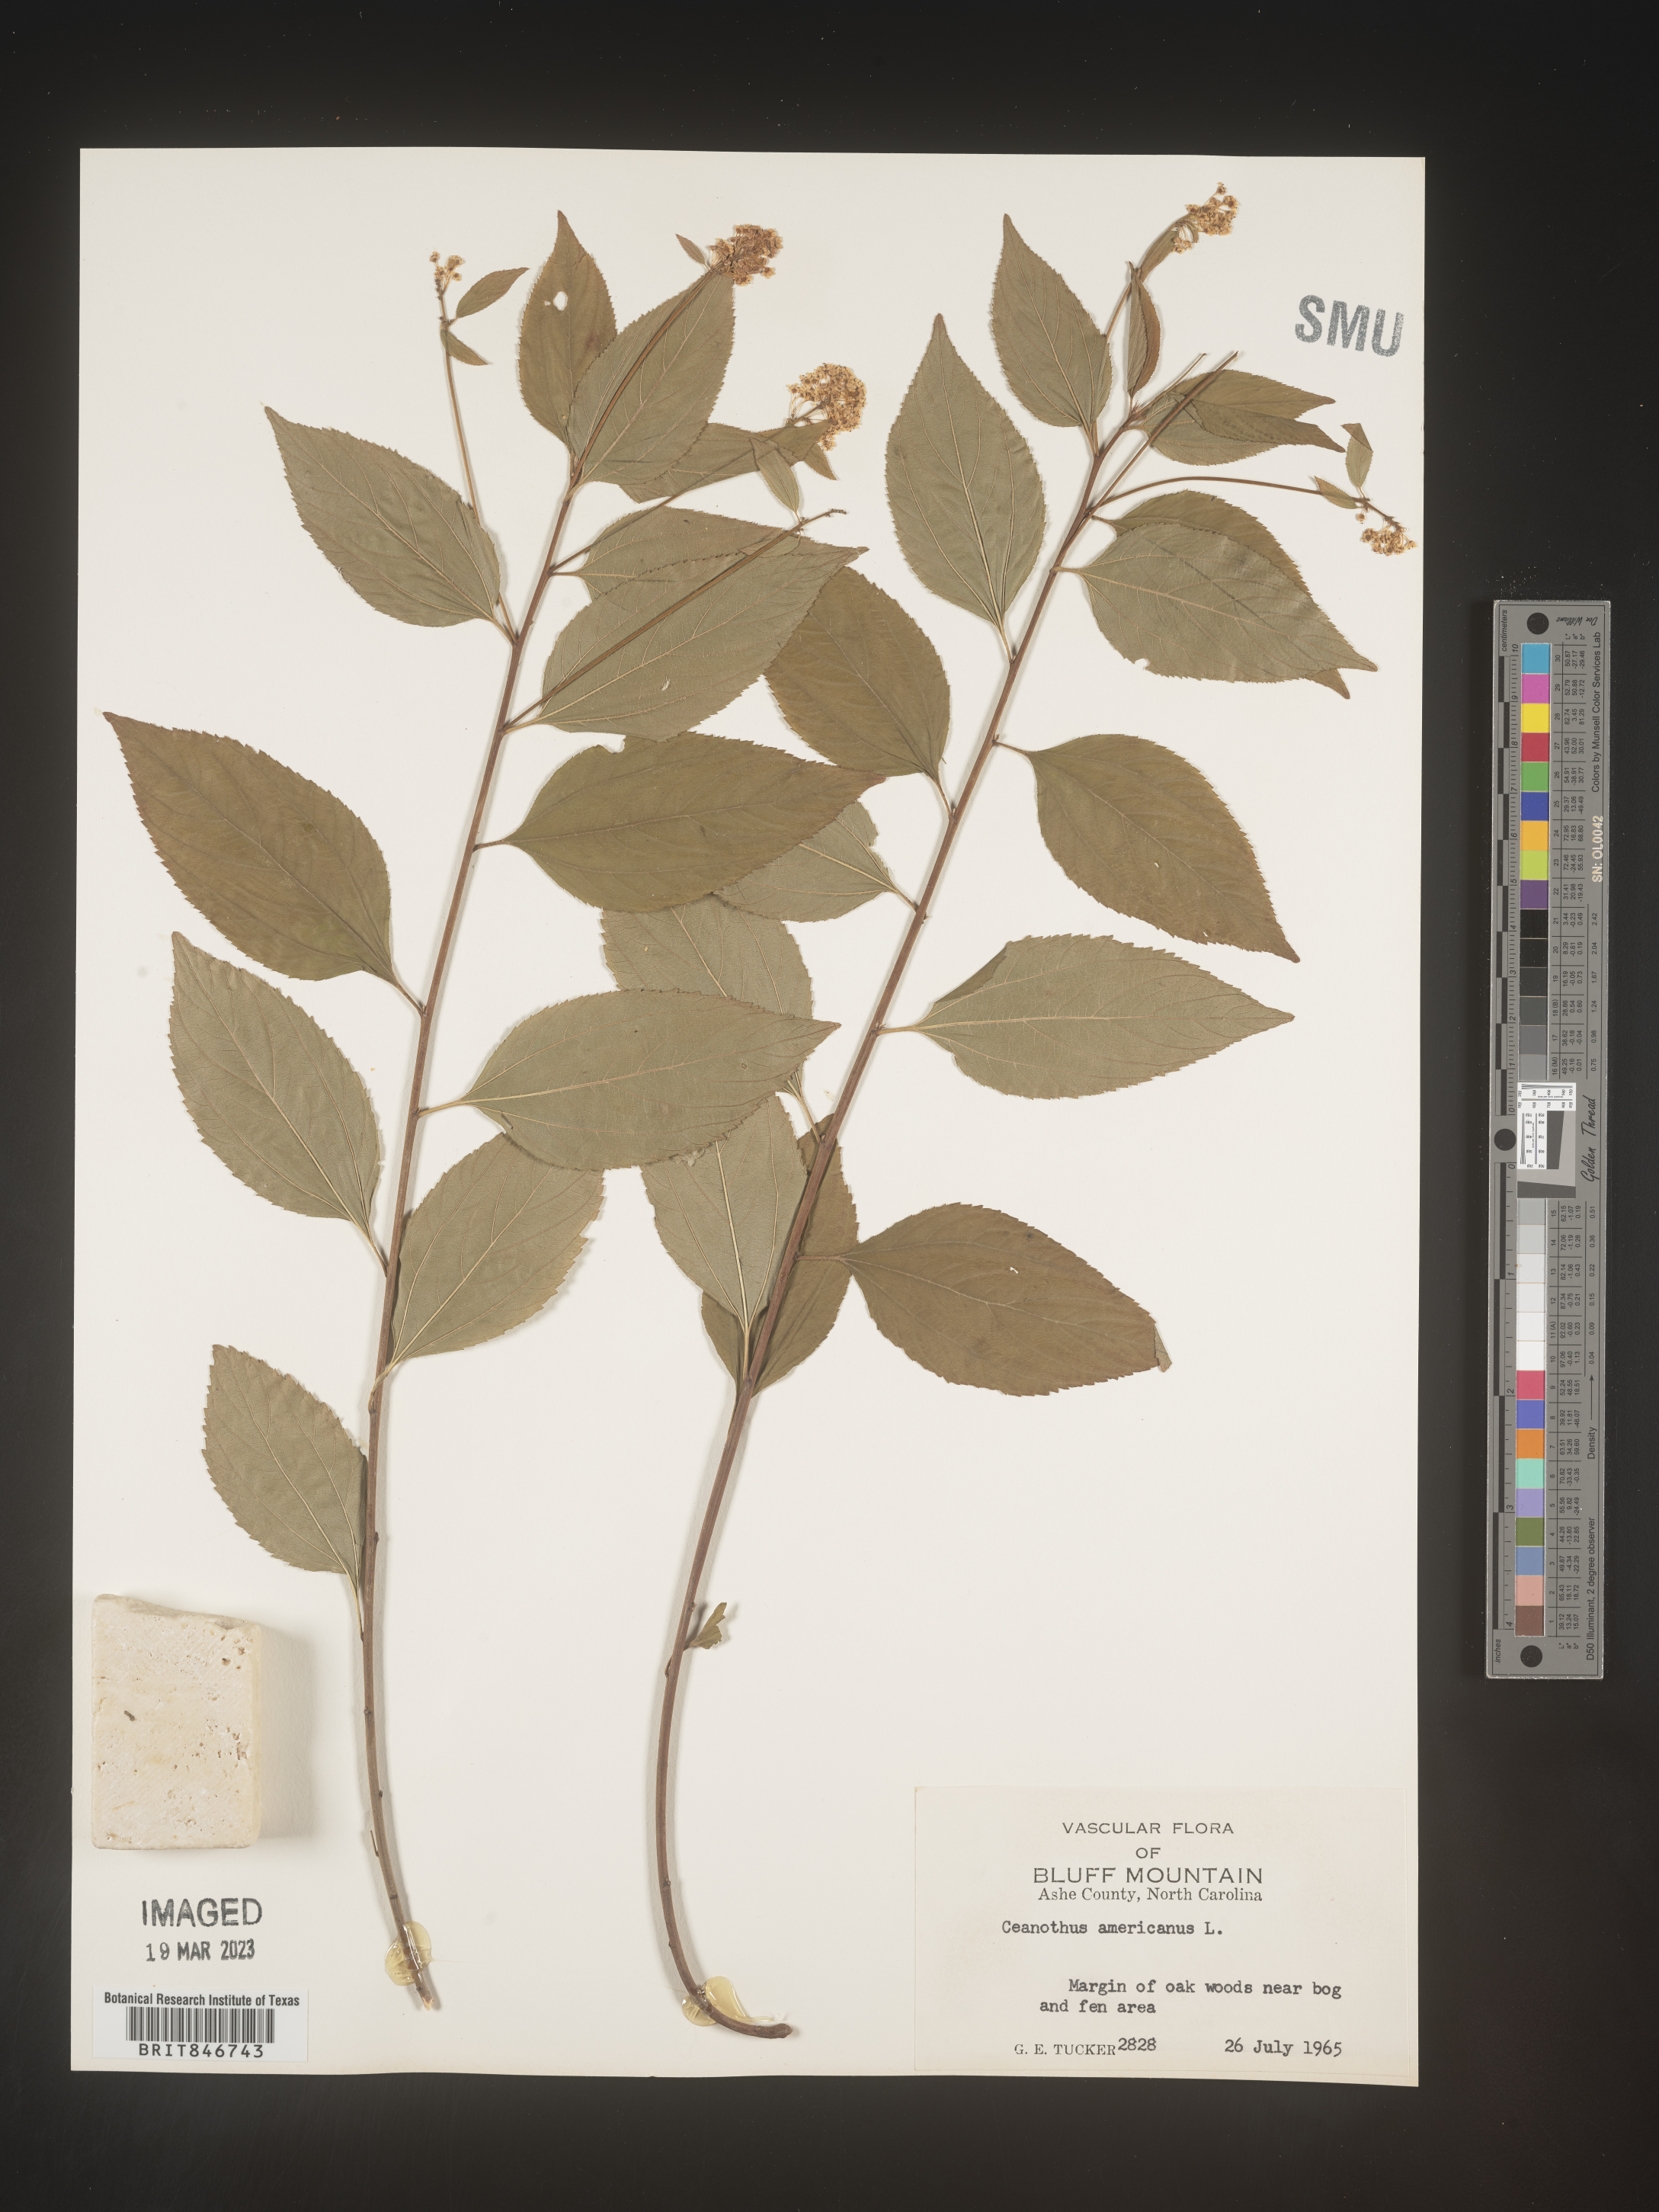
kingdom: Plantae
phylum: Tracheophyta
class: Magnoliopsida
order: Rosales
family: Rhamnaceae
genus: Ceanothus
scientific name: Ceanothus americanus
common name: Redroot
